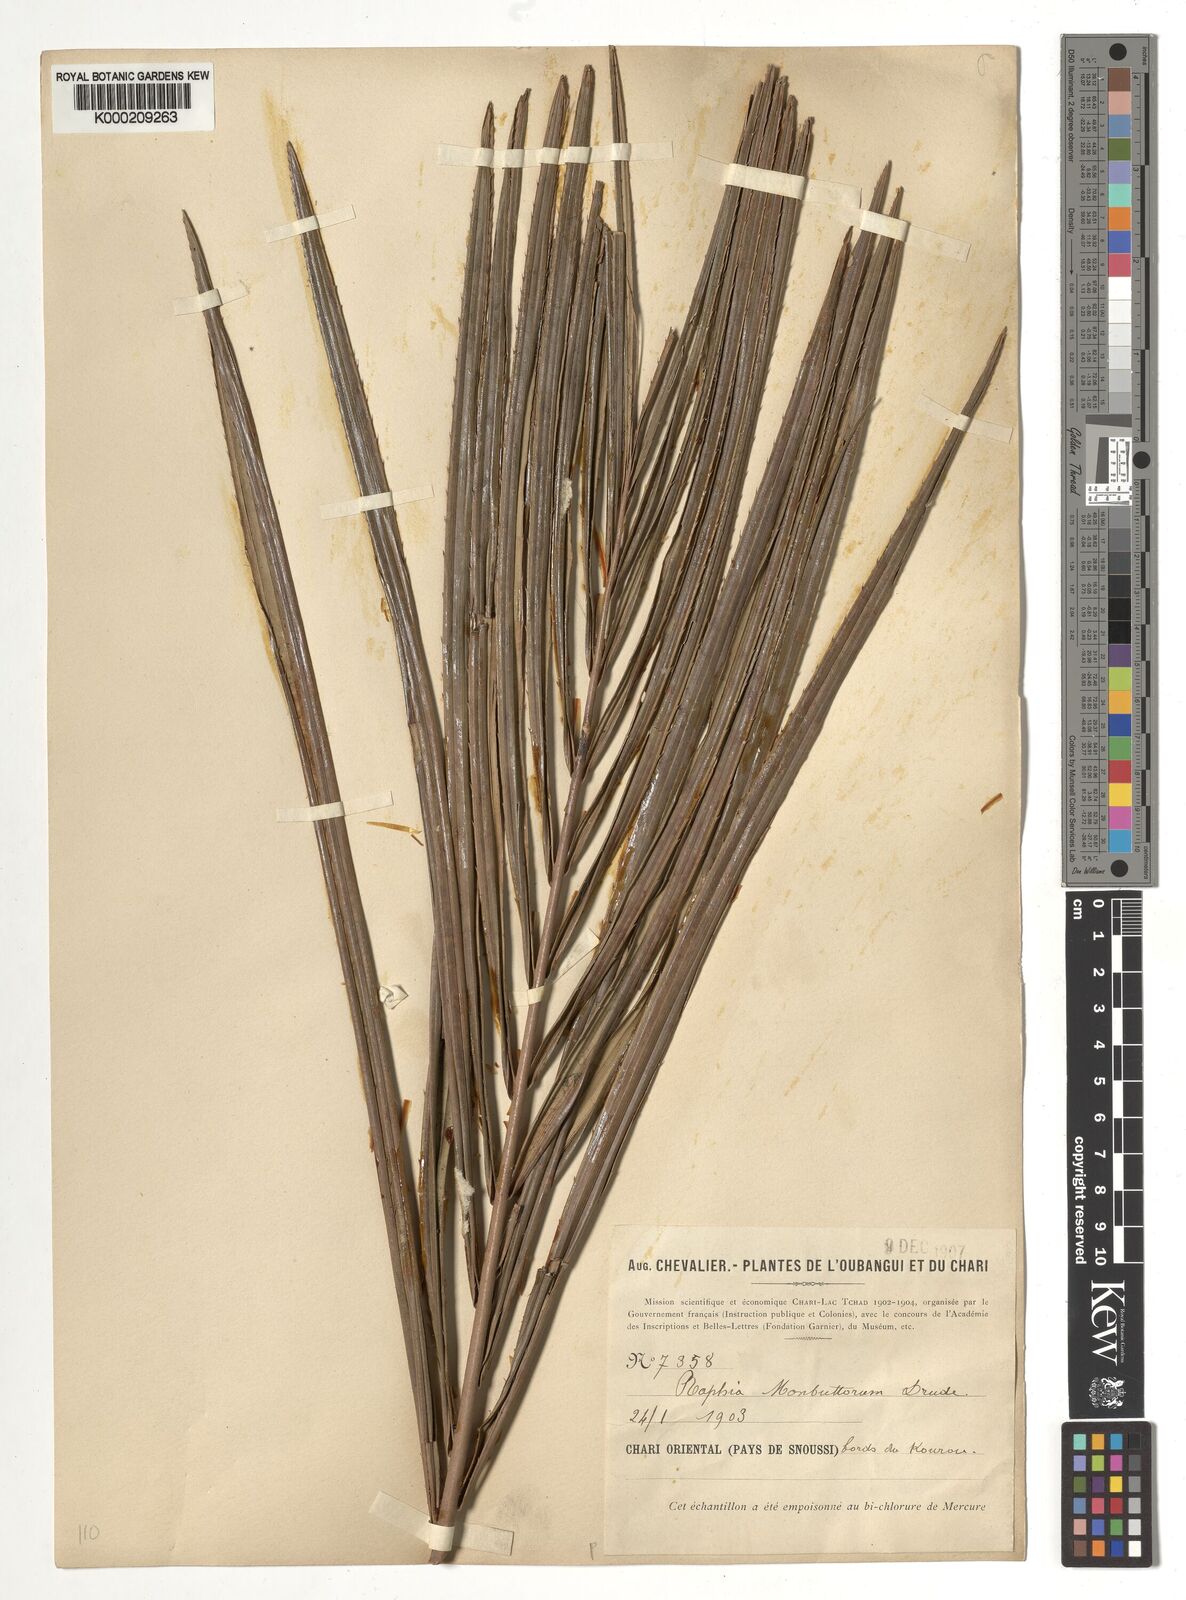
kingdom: Plantae
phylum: Tracheophyta
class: Liliopsida
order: Arecales
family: Arecaceae
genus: Raphia
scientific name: Raphia monbuttorum
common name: Raphia palm
